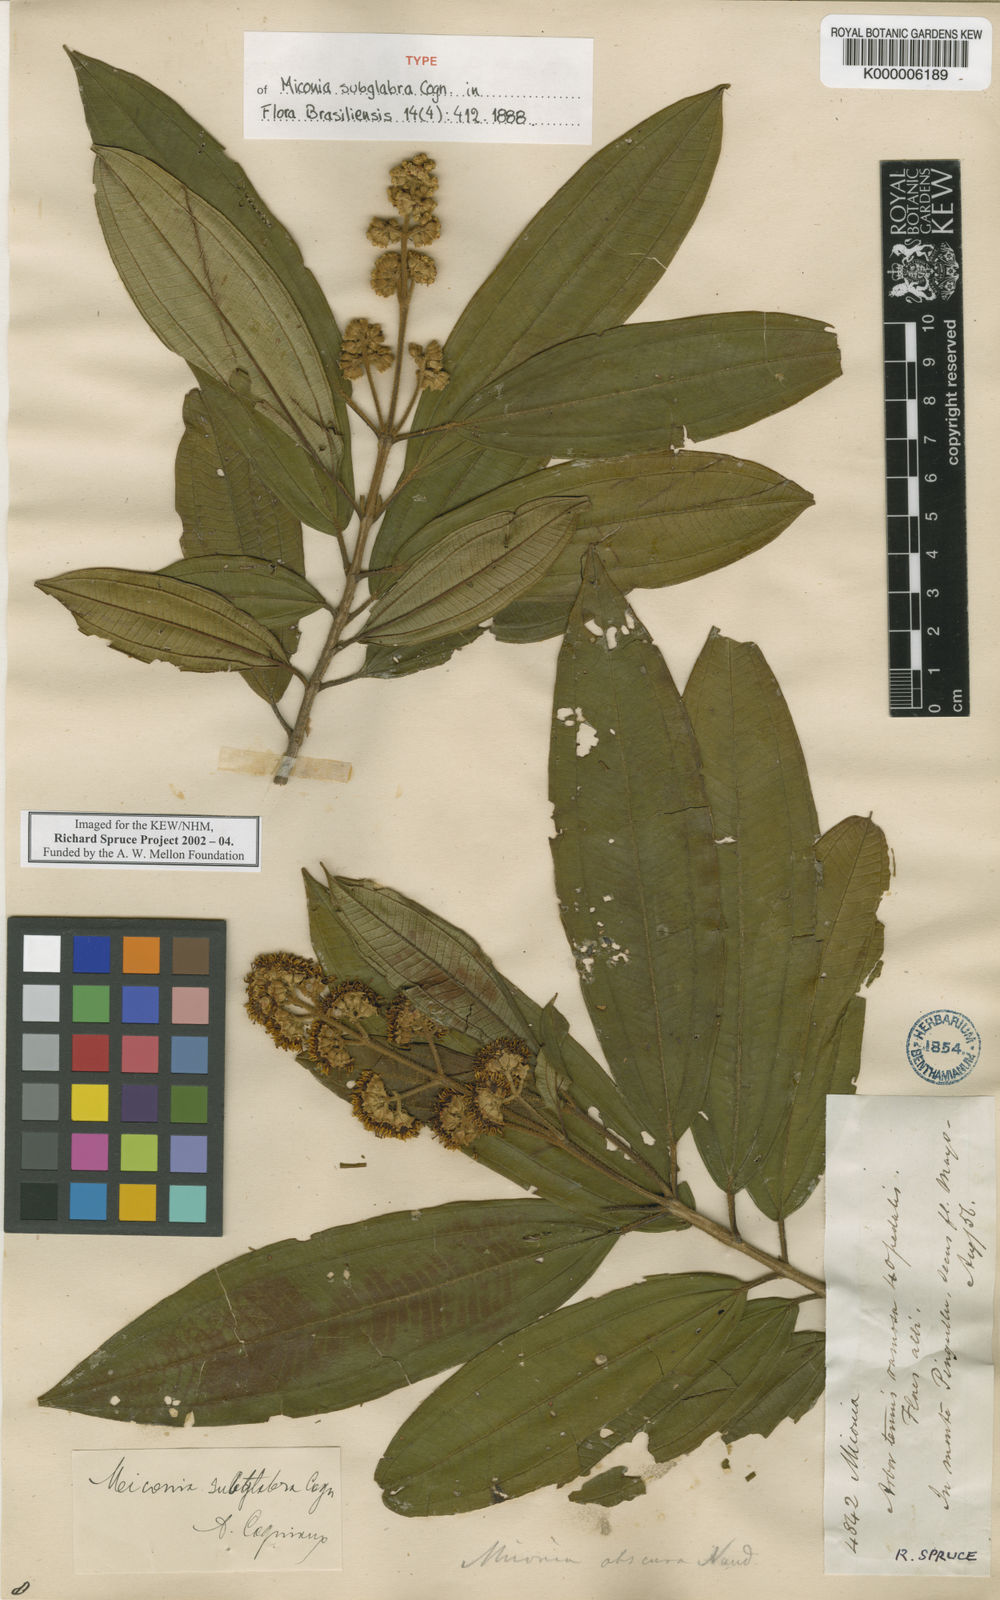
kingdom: Plantae
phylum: Tracheophyta
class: Magnoliopsida
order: Myrtales
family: Melastomataceae
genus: Miconia
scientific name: Miconia subglabra
